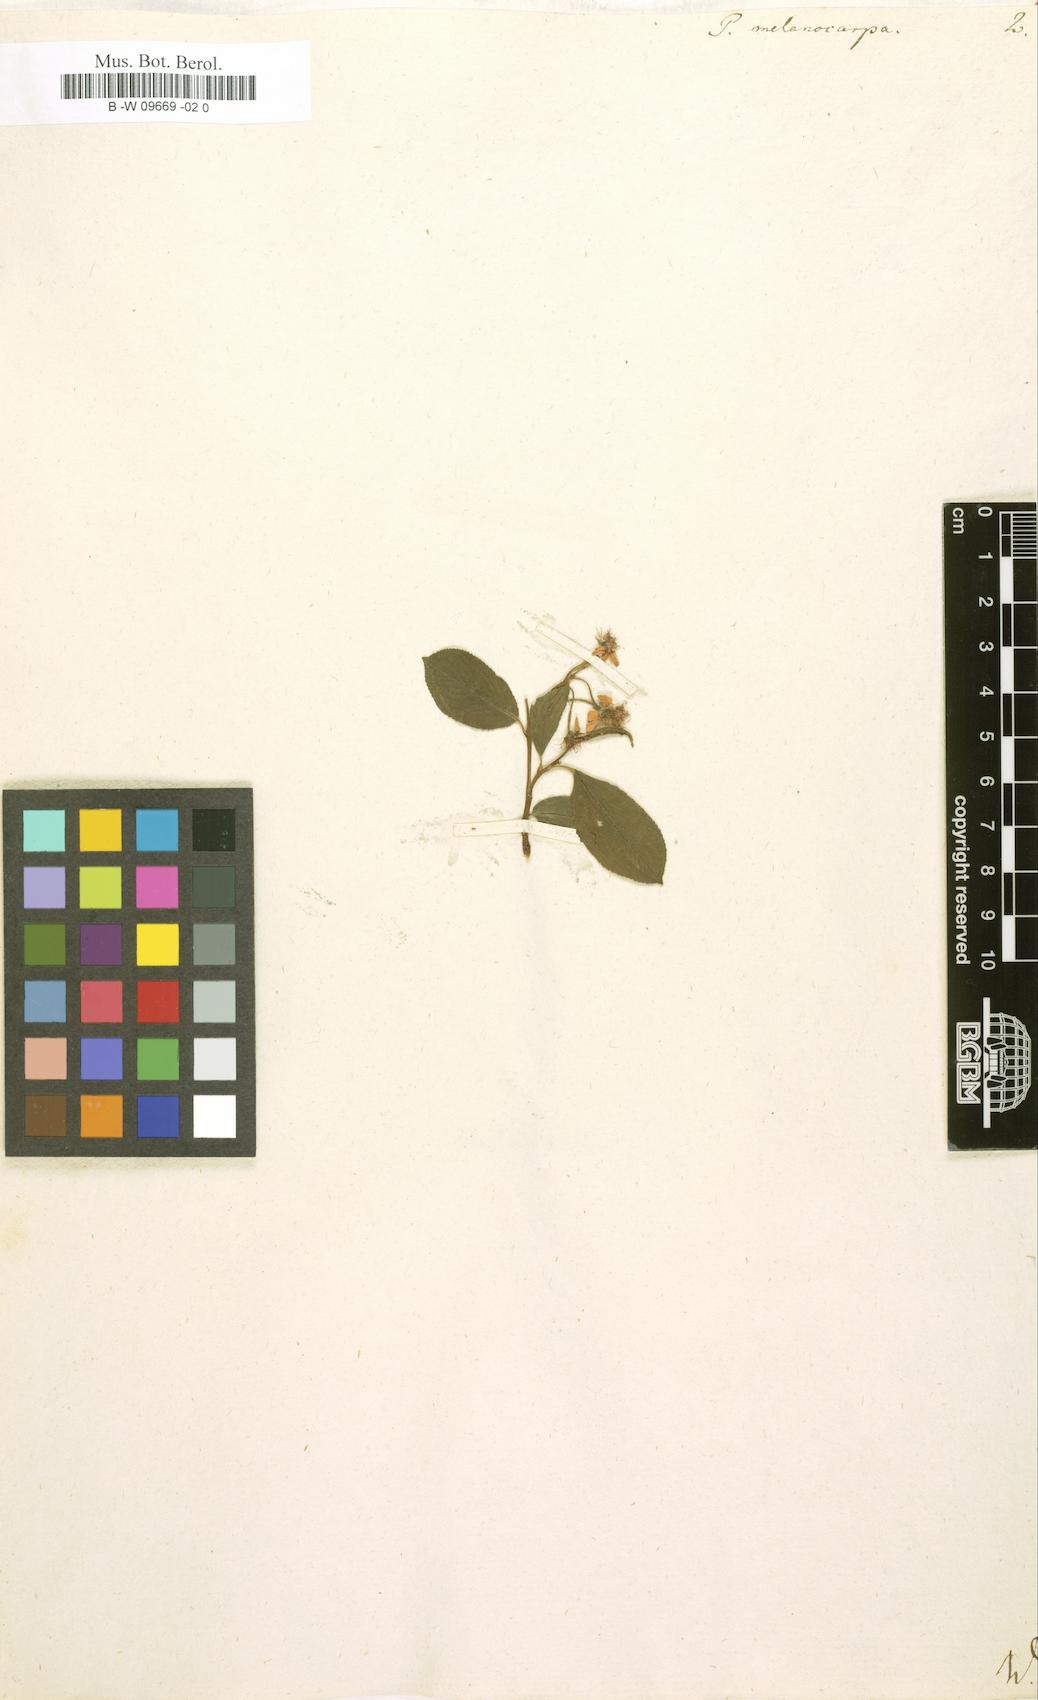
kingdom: Plantae
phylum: Tracheophyta
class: Magnoliopsida
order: Rosales
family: Rosaceae
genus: Aronia
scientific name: Aronia melanocarpa
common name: Black chokeberry
